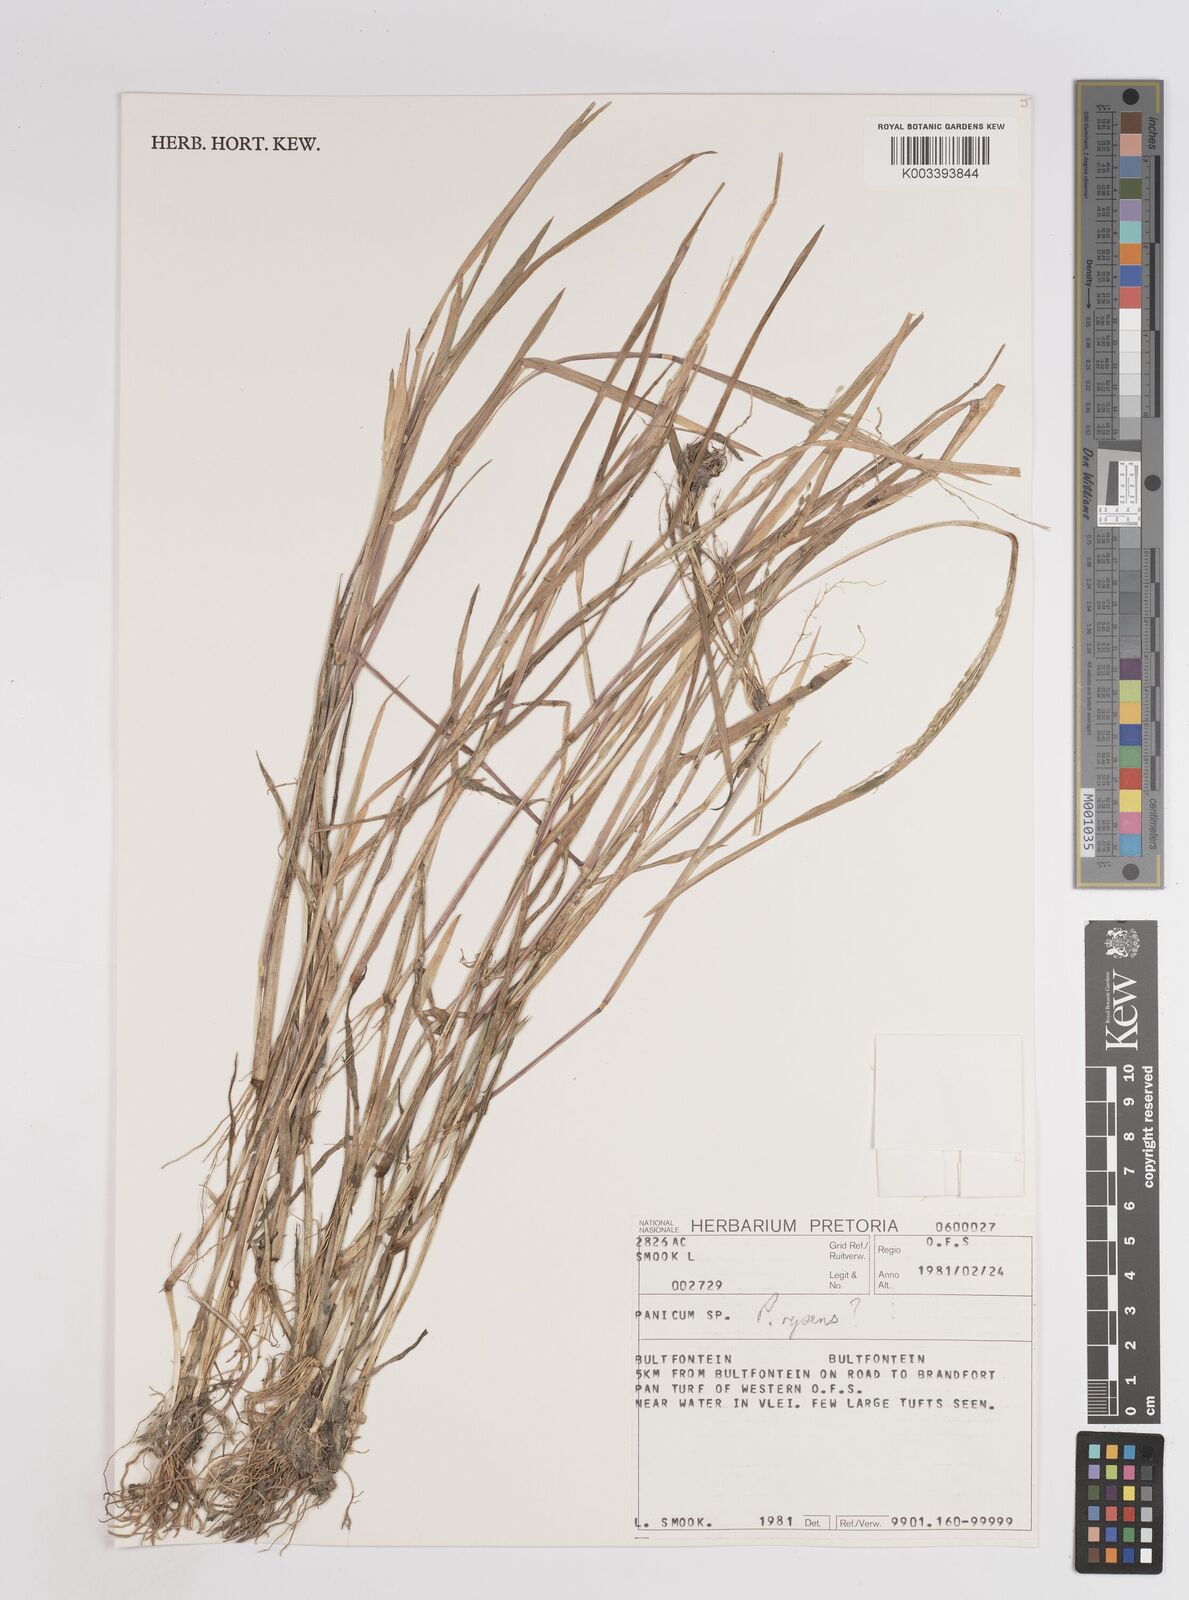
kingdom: Plantae
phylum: Tracheophyta
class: Liliopsida
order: Poales
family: Poaceae
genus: Panicum
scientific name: Panicum hygrocharis
